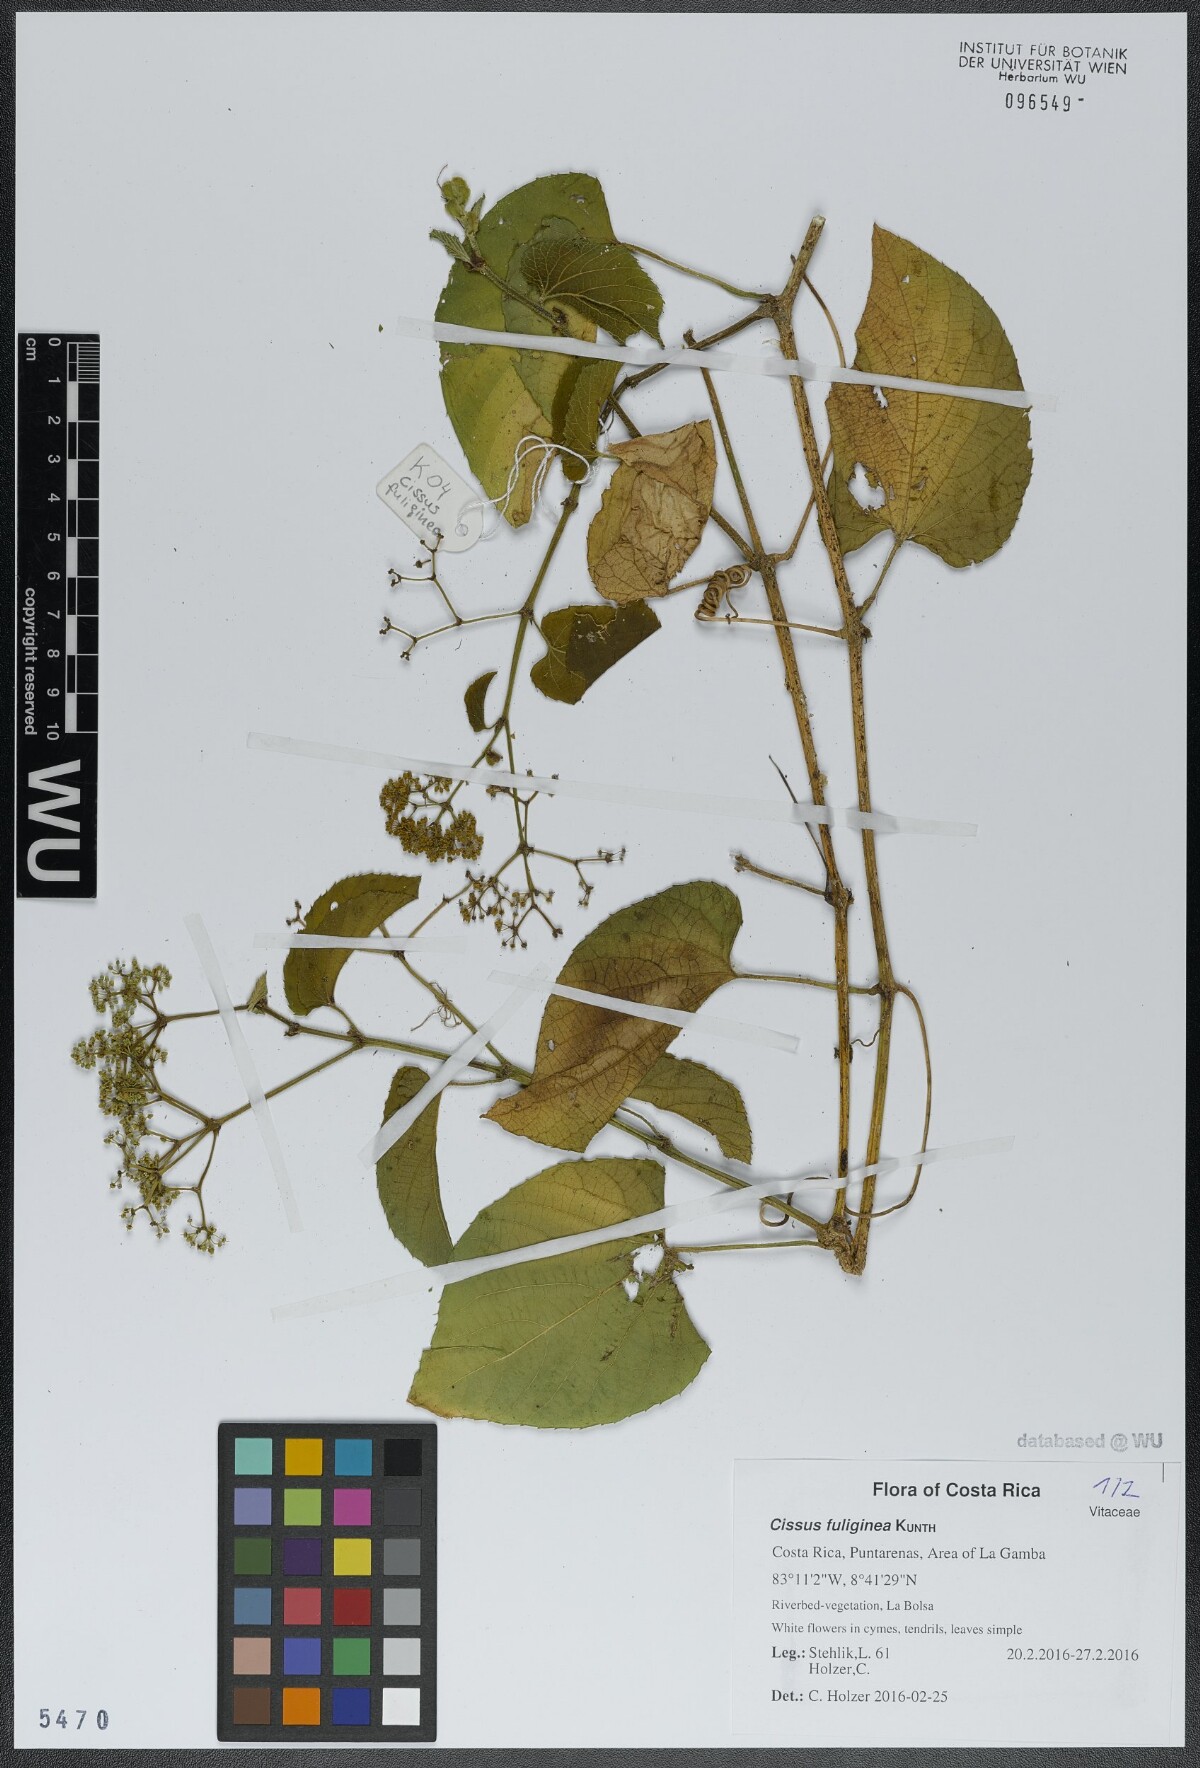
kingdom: Plantae
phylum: Tracheophyta
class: Magnoliopsida
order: Vitales
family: Vitaceae
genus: Cissus
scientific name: Cissus fuliginea
